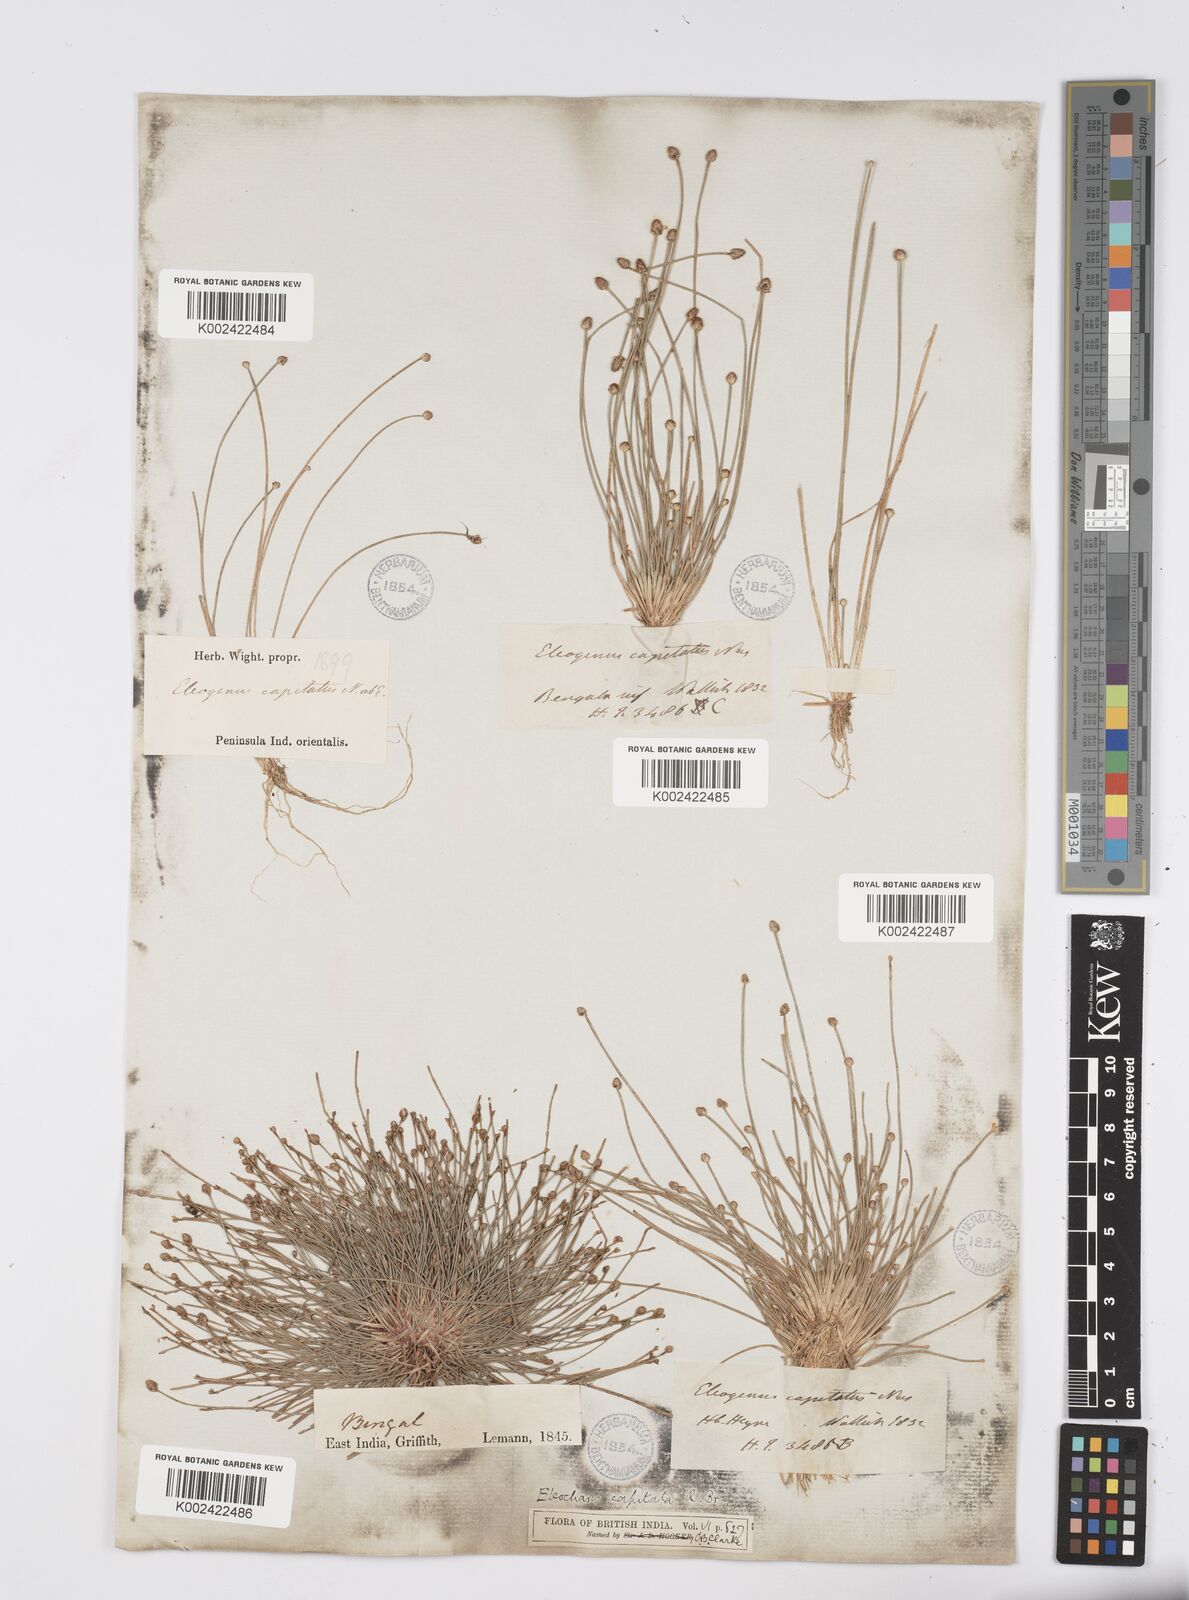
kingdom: Plantae
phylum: Tracheophyta
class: Liliopsida
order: Poales
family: Cyperaceae
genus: Eleocharis
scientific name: Eleocharis geniculata
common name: Canada spikesedge
